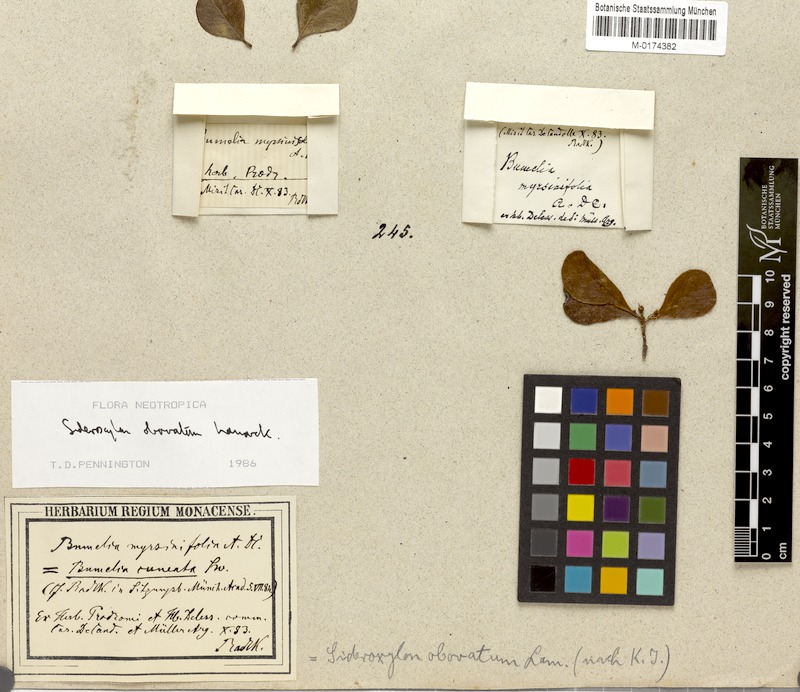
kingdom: Plantae
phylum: Tracheophyta
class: Magnoliopsida
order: Ericales
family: Sapotaceae
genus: Sideroxylon
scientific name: Sideroxylon obovatum
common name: Breakbill
